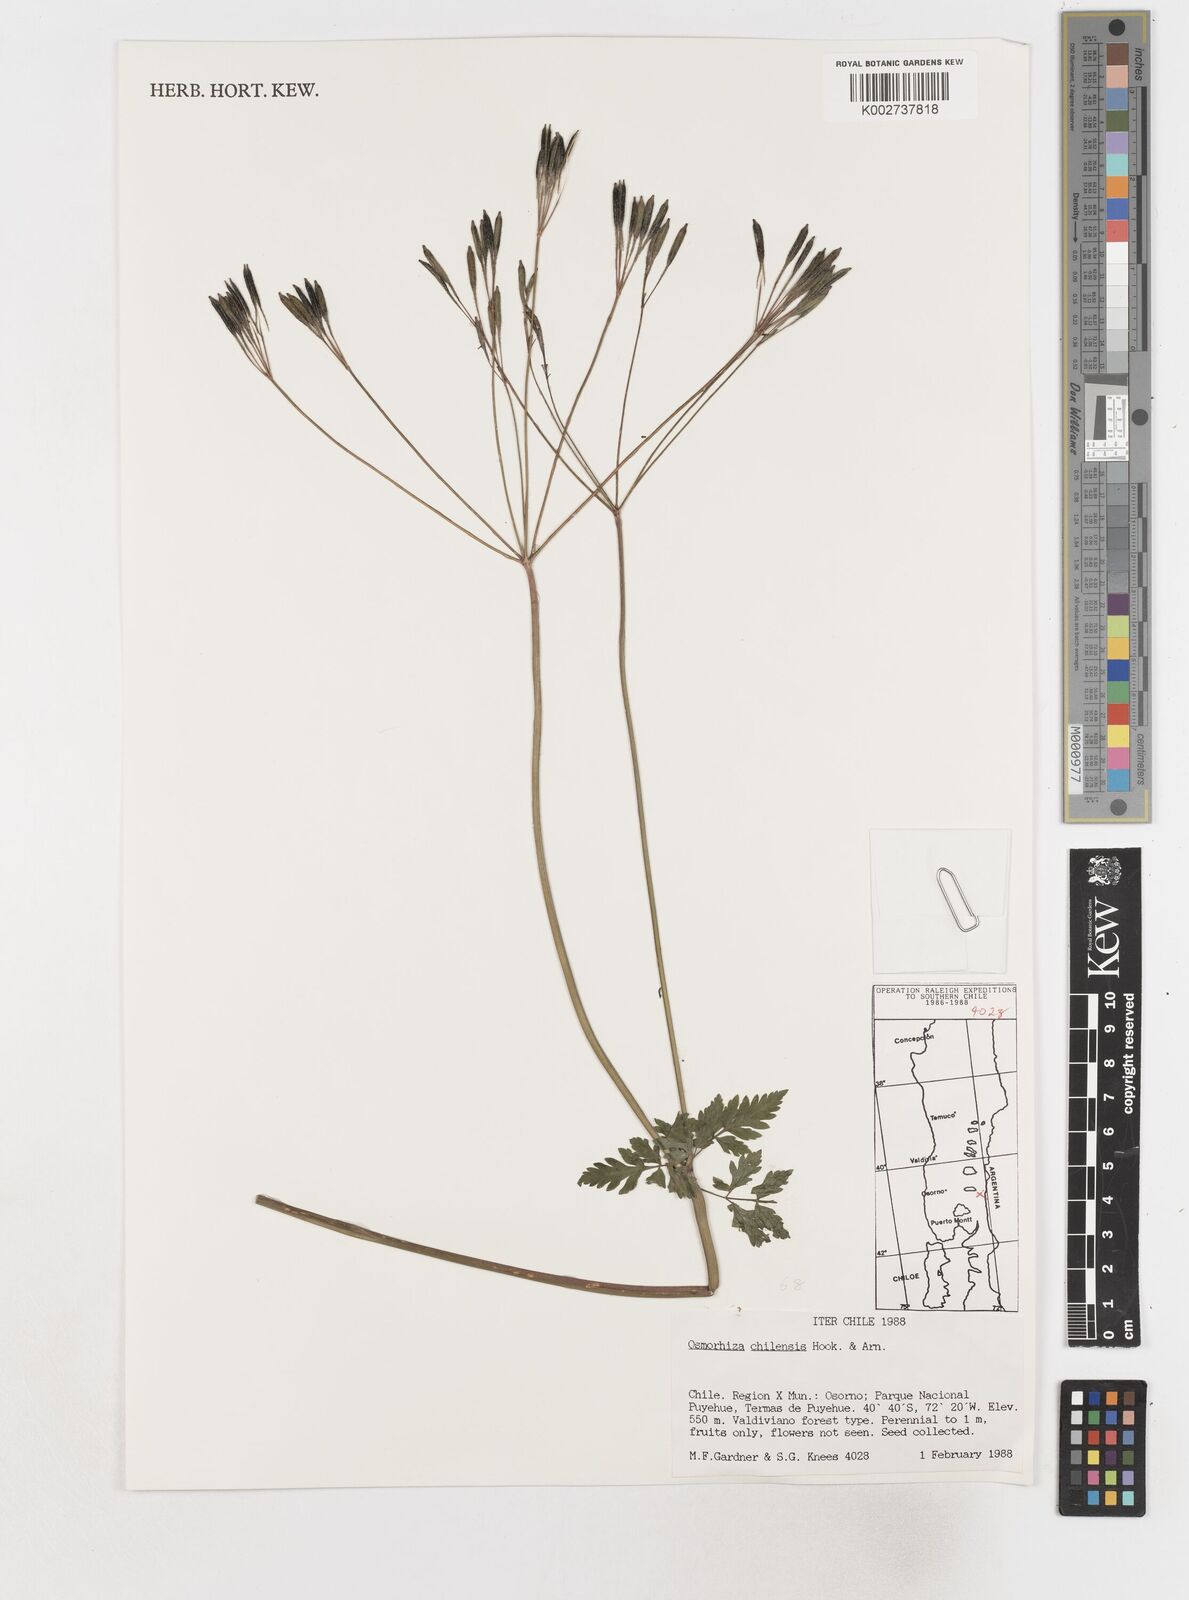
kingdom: Plantae
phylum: Tracheophyta
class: Magnoliopsida
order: Apiales
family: Apiaceae
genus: Osmorhiza
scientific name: Osmorhiza berteroi
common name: Mountain sweet cicely
